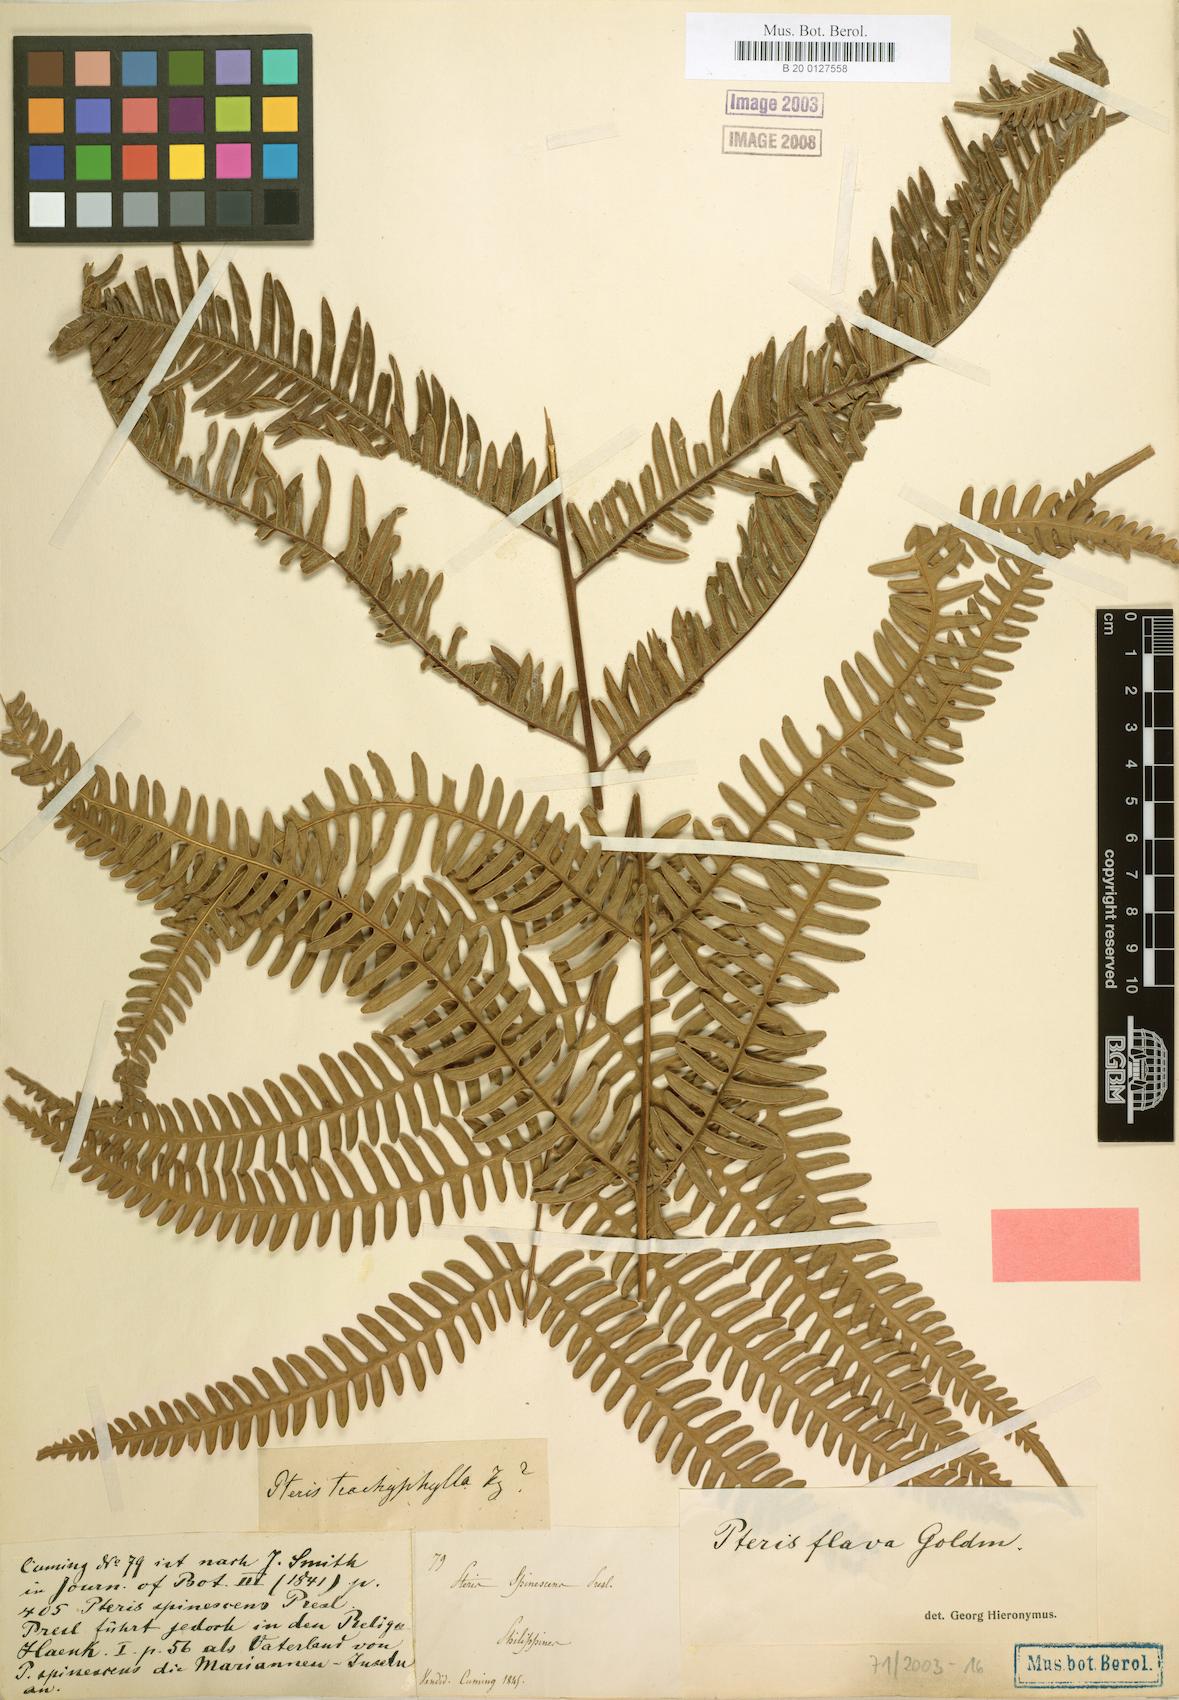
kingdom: Plantae
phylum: Tracheophyta
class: Polypodiopsida
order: Polypodiales
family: Pteridaceae
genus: Pteris
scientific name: Pteris glaucovirens
